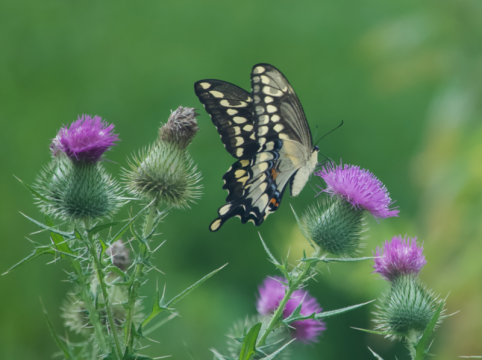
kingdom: Animalia
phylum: Arthropoda
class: Insecta
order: Lepidoptera
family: Papilionidae
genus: Papilio
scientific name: Papilio cresphontes
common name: Eastern Giant Swallowtail
